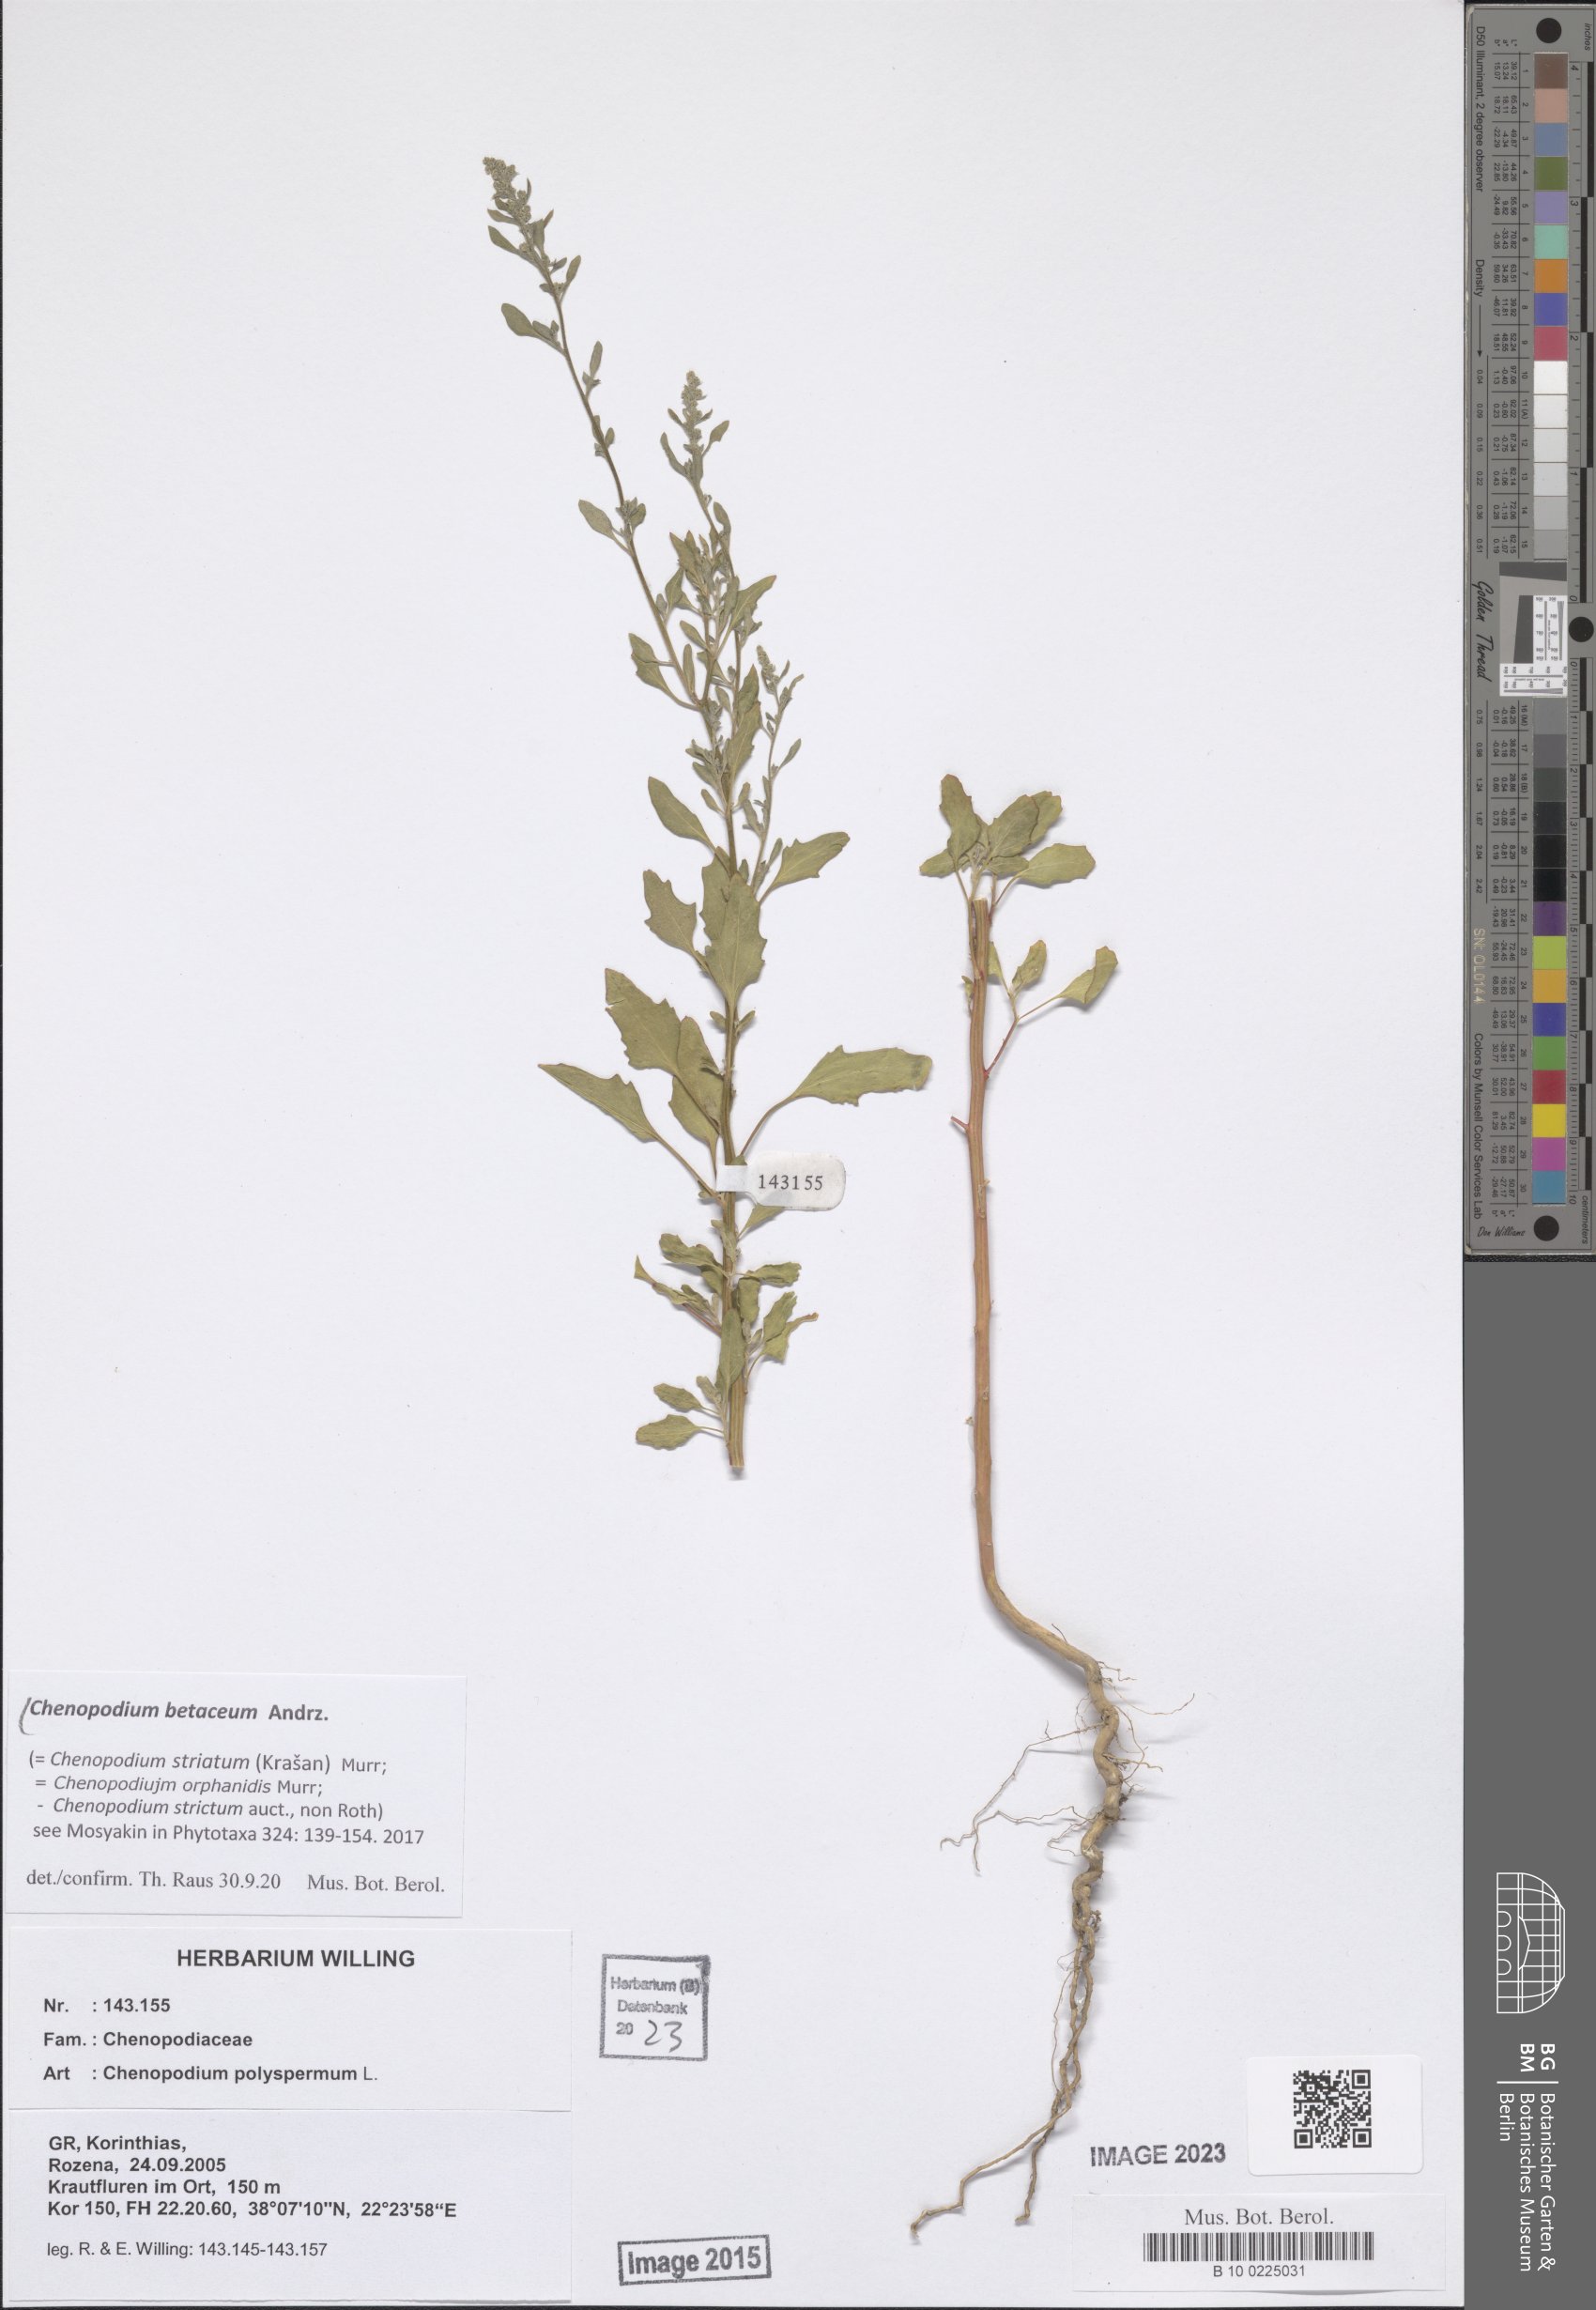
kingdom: Plantae
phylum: Tracheophyta
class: Magnoliopsida
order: Caryophyllales
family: Amaranthaceae
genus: Chenopodium
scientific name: Chenopodium betaceum
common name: Striped goosefoot
